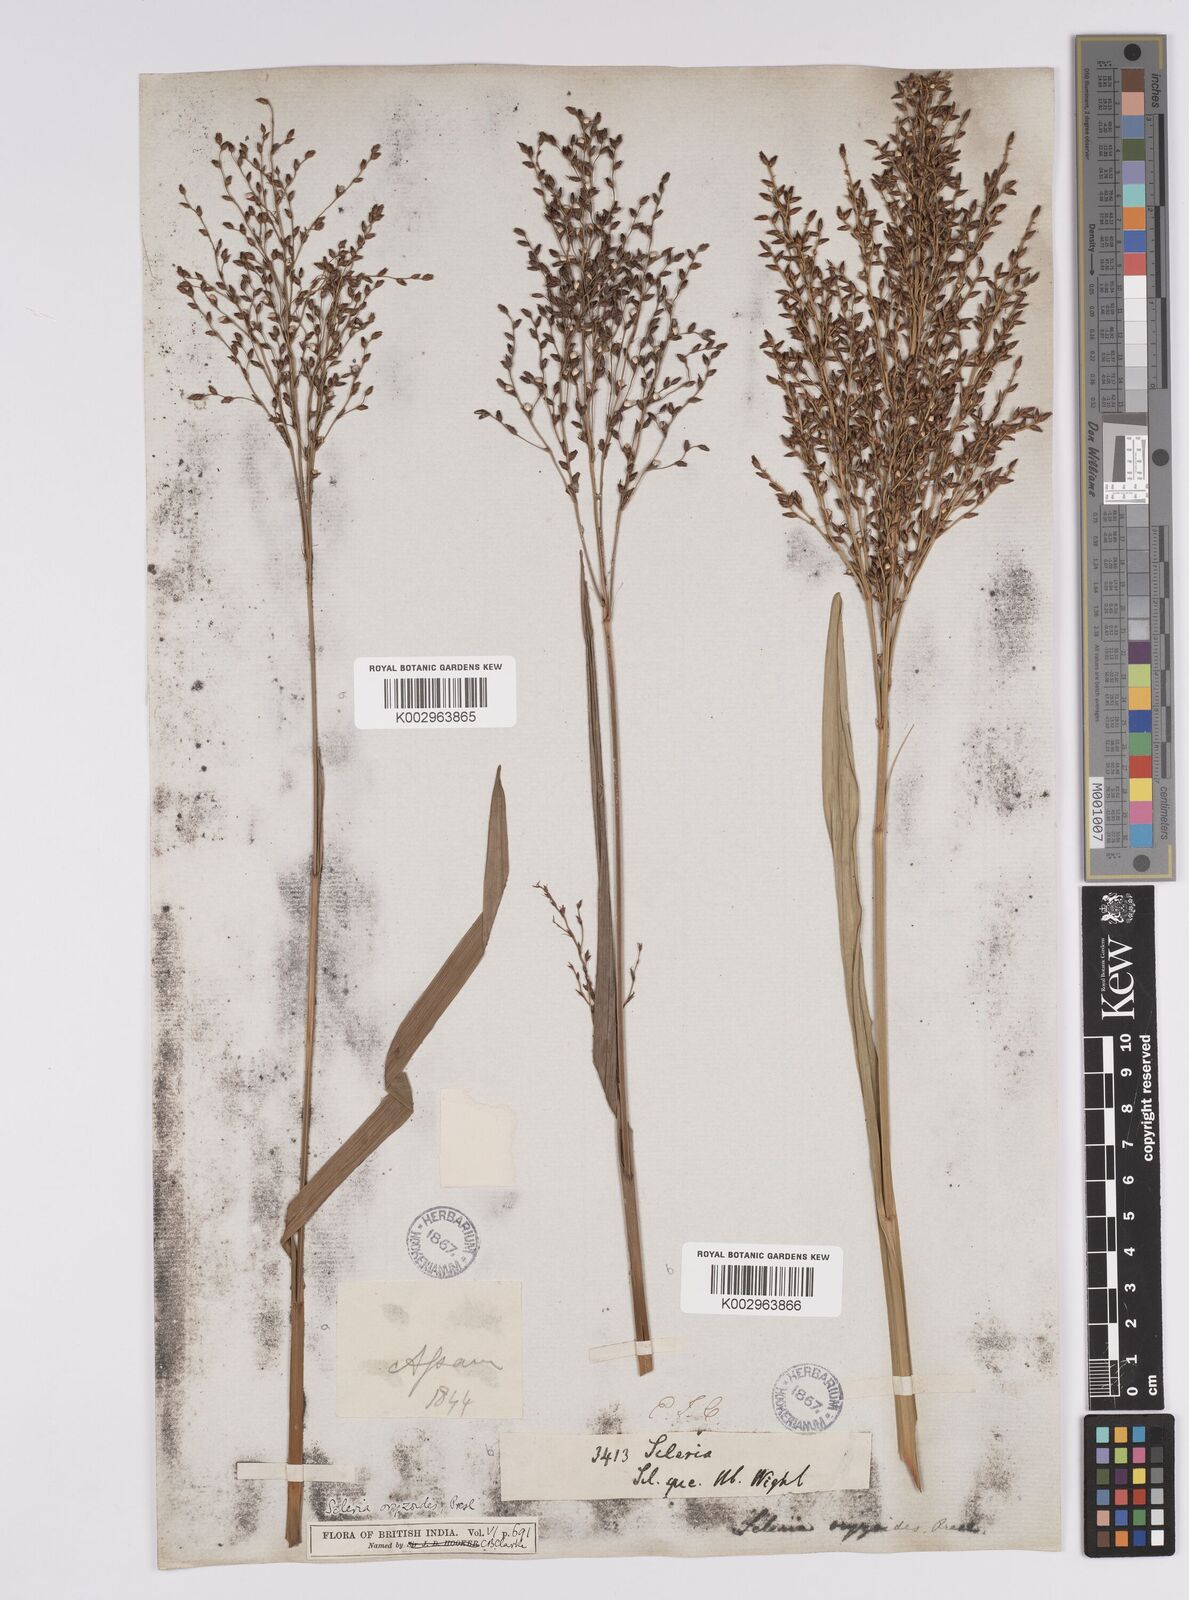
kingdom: Plantae
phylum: Tracheophyta
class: Liliopsida
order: Poales
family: Cyperaceae
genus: Scleria
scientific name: Scleria poiformis
